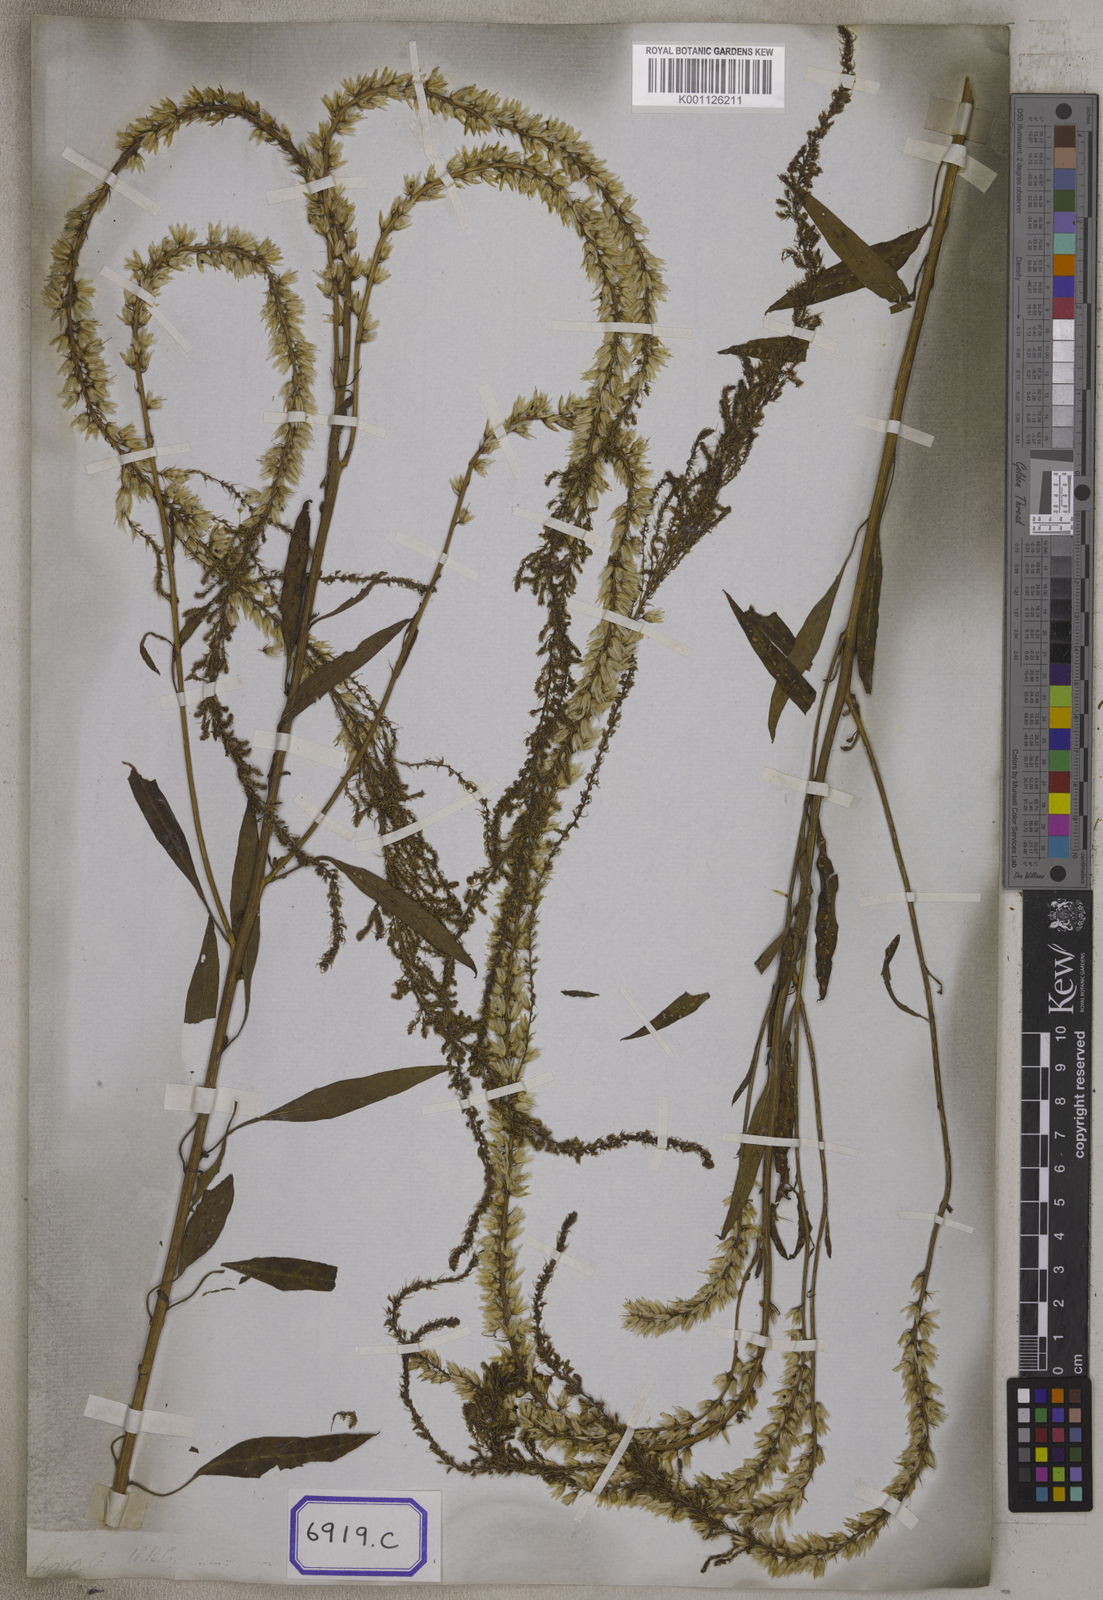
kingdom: Plantae
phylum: Tracheophyta
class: Magnoliopsida
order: Caryophyllales
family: Amaranthaceae
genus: Celosia
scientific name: Celosia argentea
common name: Feather cockscomb
